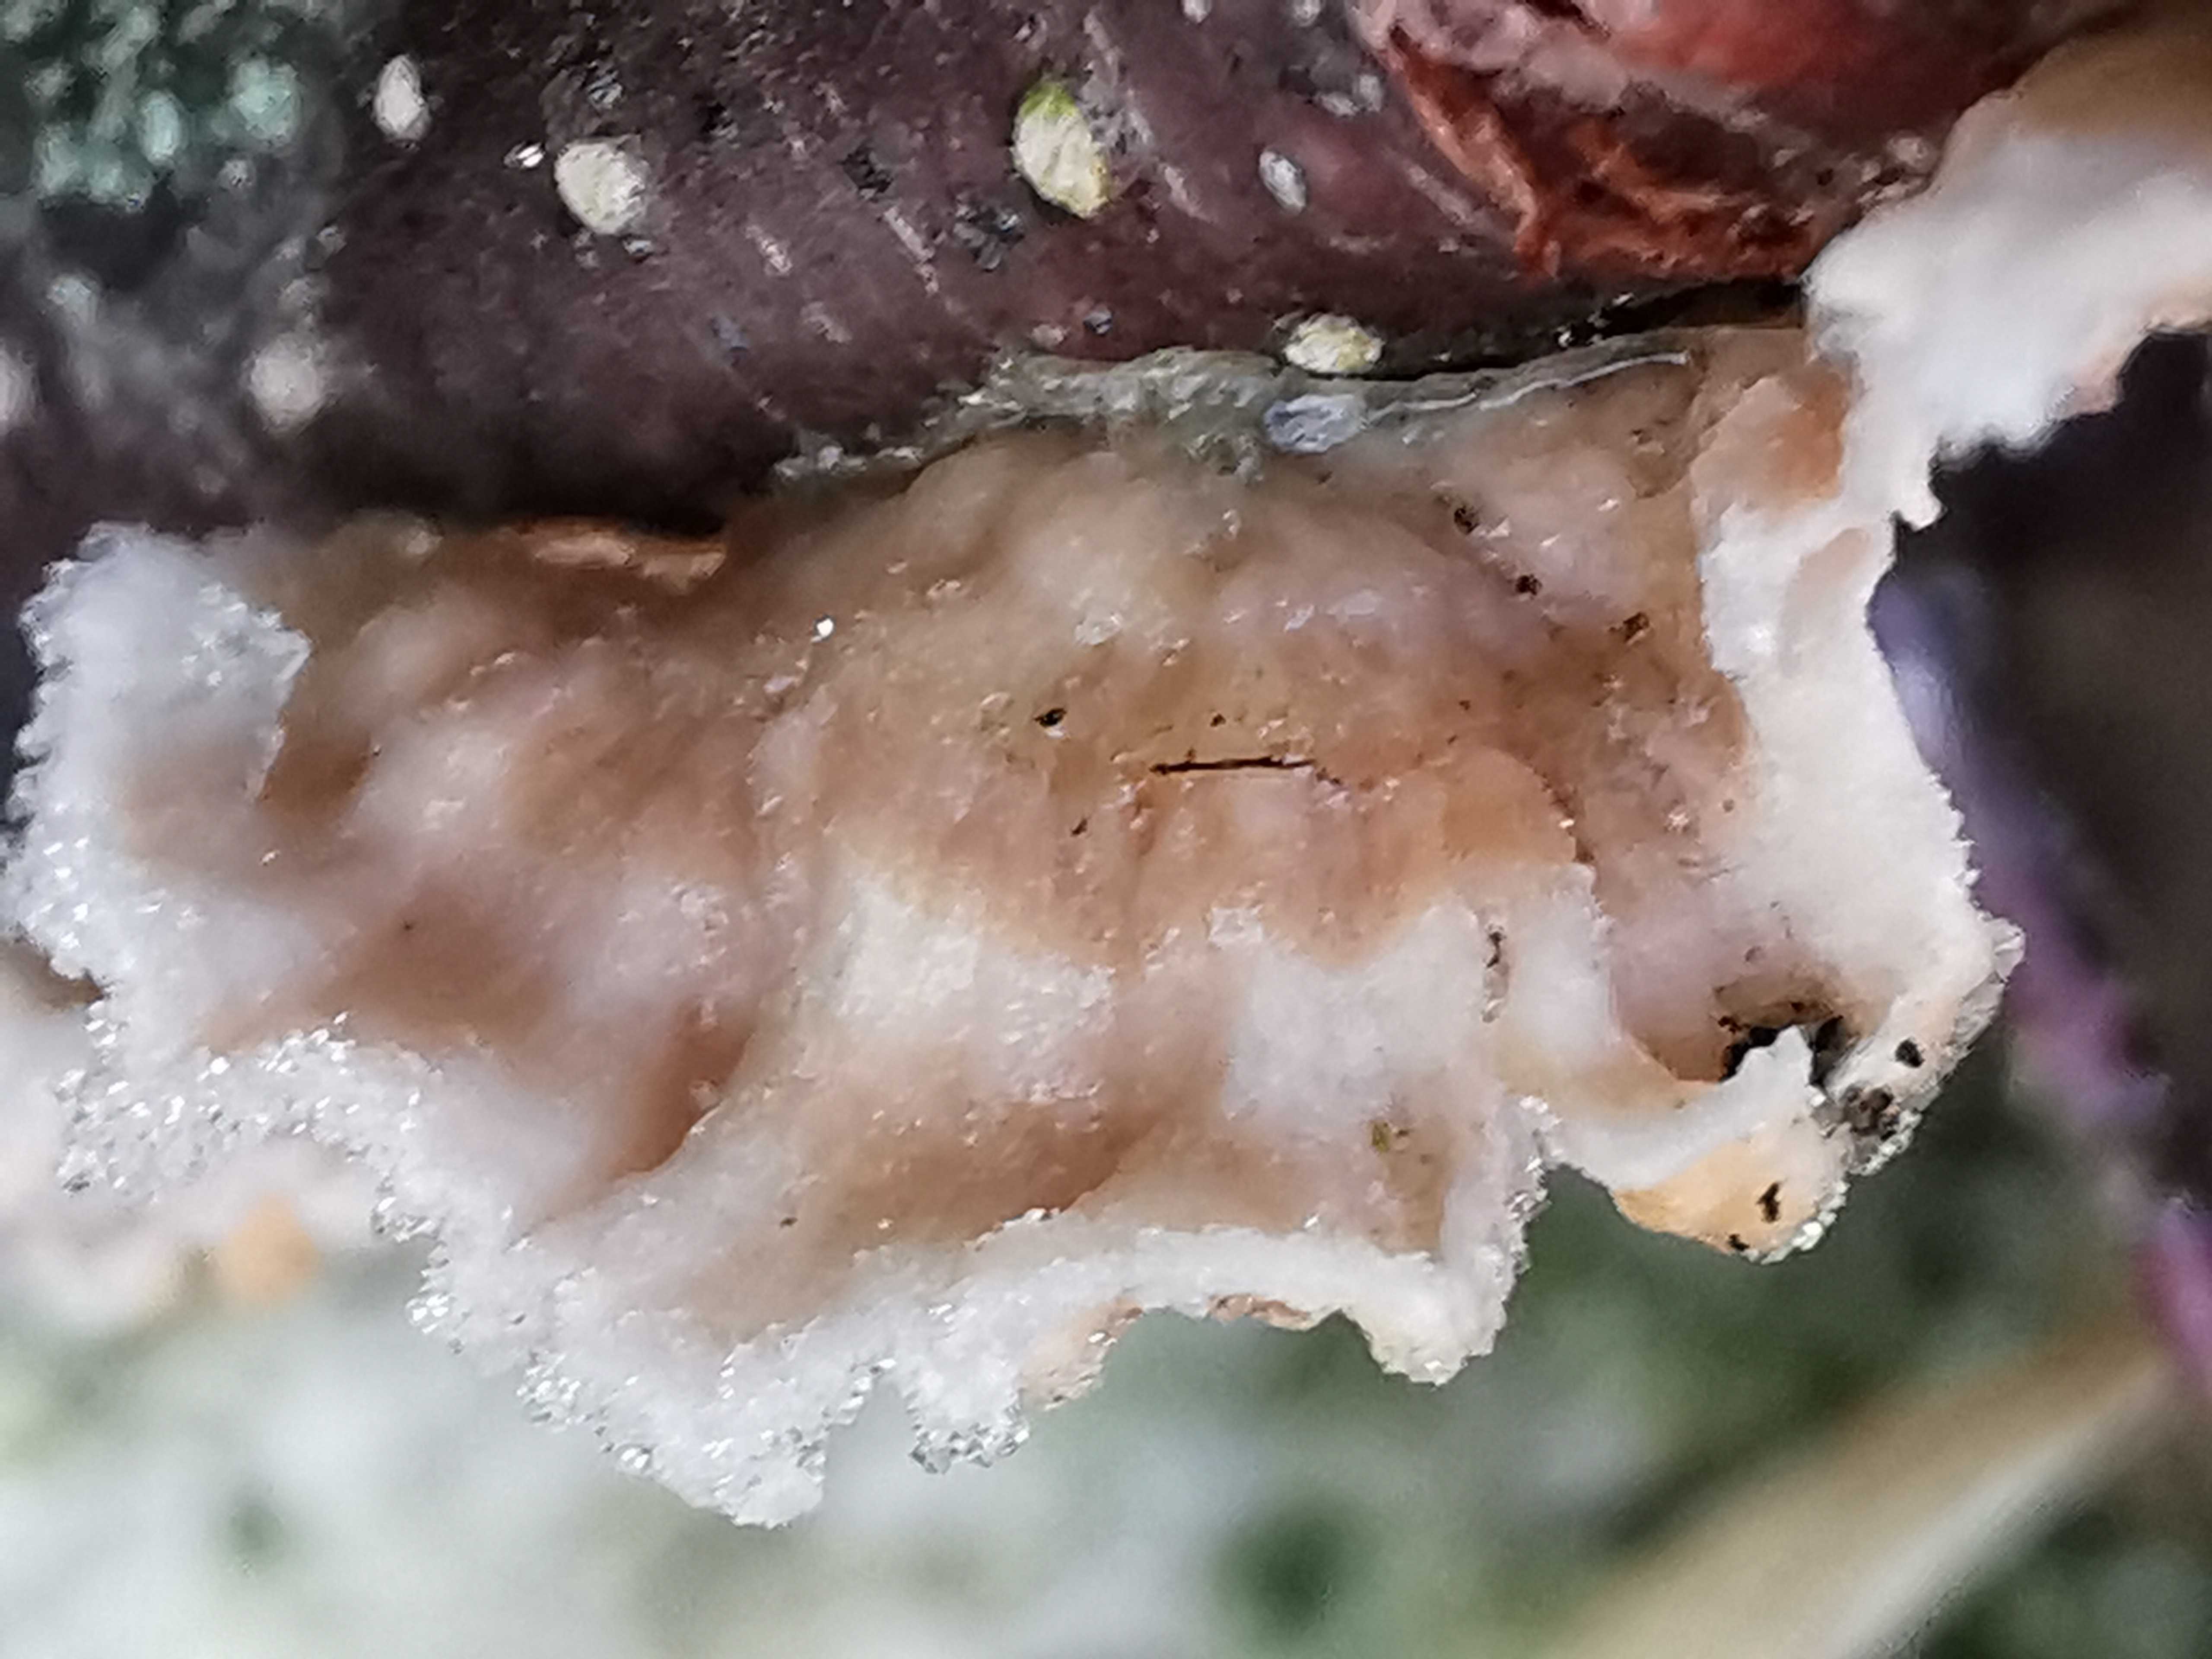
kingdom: Fungi
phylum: Basidiomycota
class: Agaricomycetes
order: Agaricales
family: Physalacriaceae
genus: Cylindrobasidium
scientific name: Cylindrobasidium evolvens
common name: sprækkehinde
